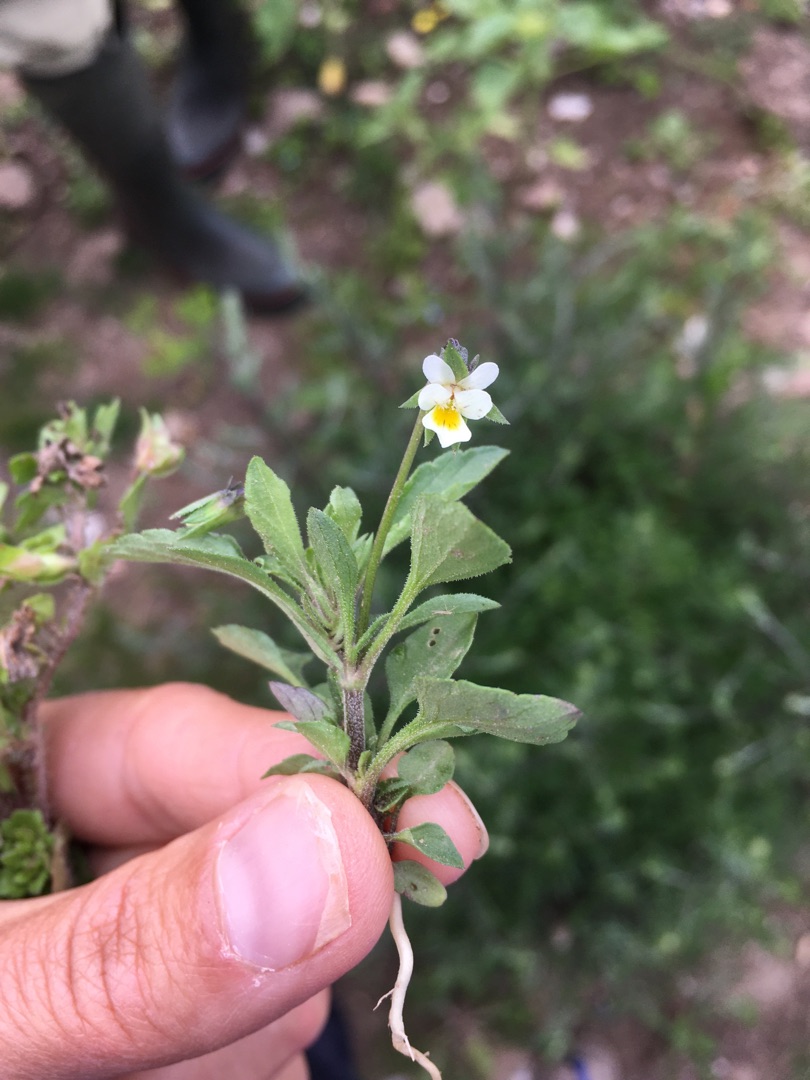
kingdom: Plantae
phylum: Tracheophyta
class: Magnoliopsida
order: Malpighiales
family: Violaceae
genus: Viola
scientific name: Viola arvensis
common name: Ager-stedmoderblomst
